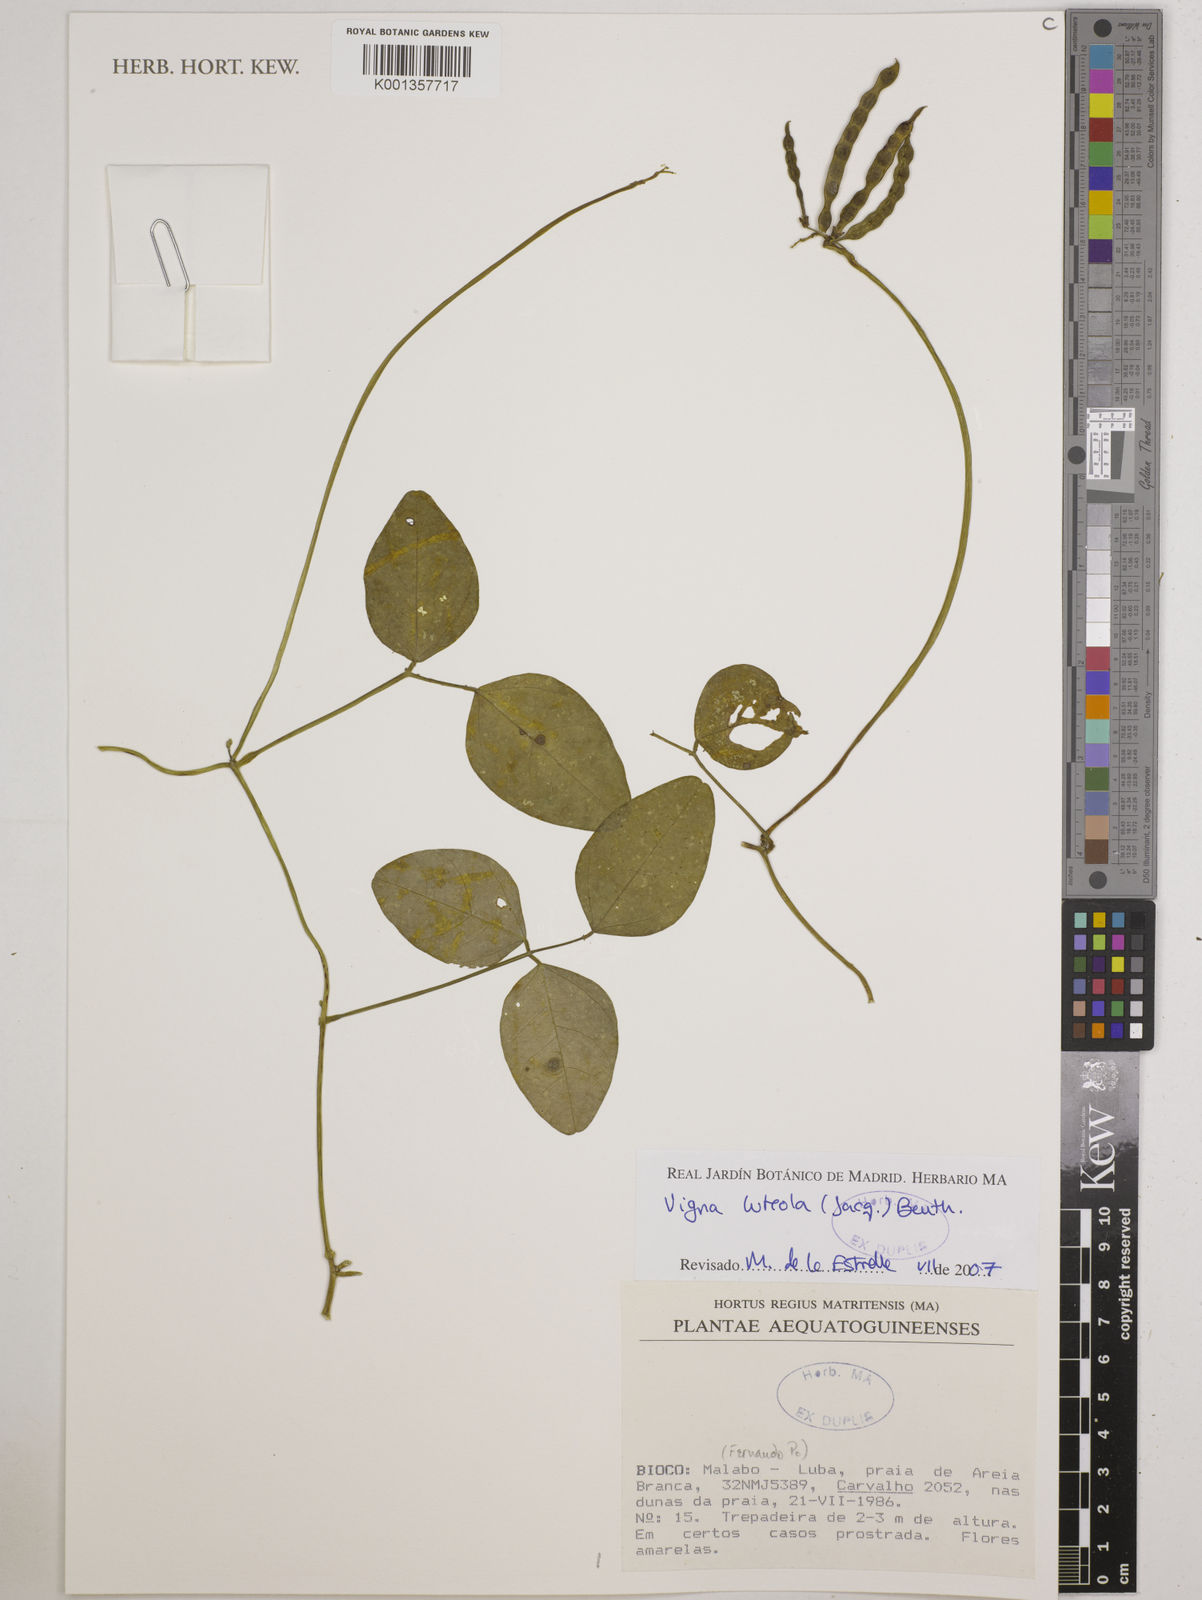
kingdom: Plantae
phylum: Tracheophyta
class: Magnoliopsida
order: Fabales
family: Fabaceae
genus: Vigna
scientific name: Vigna luteola
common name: Hairypod cowpea
